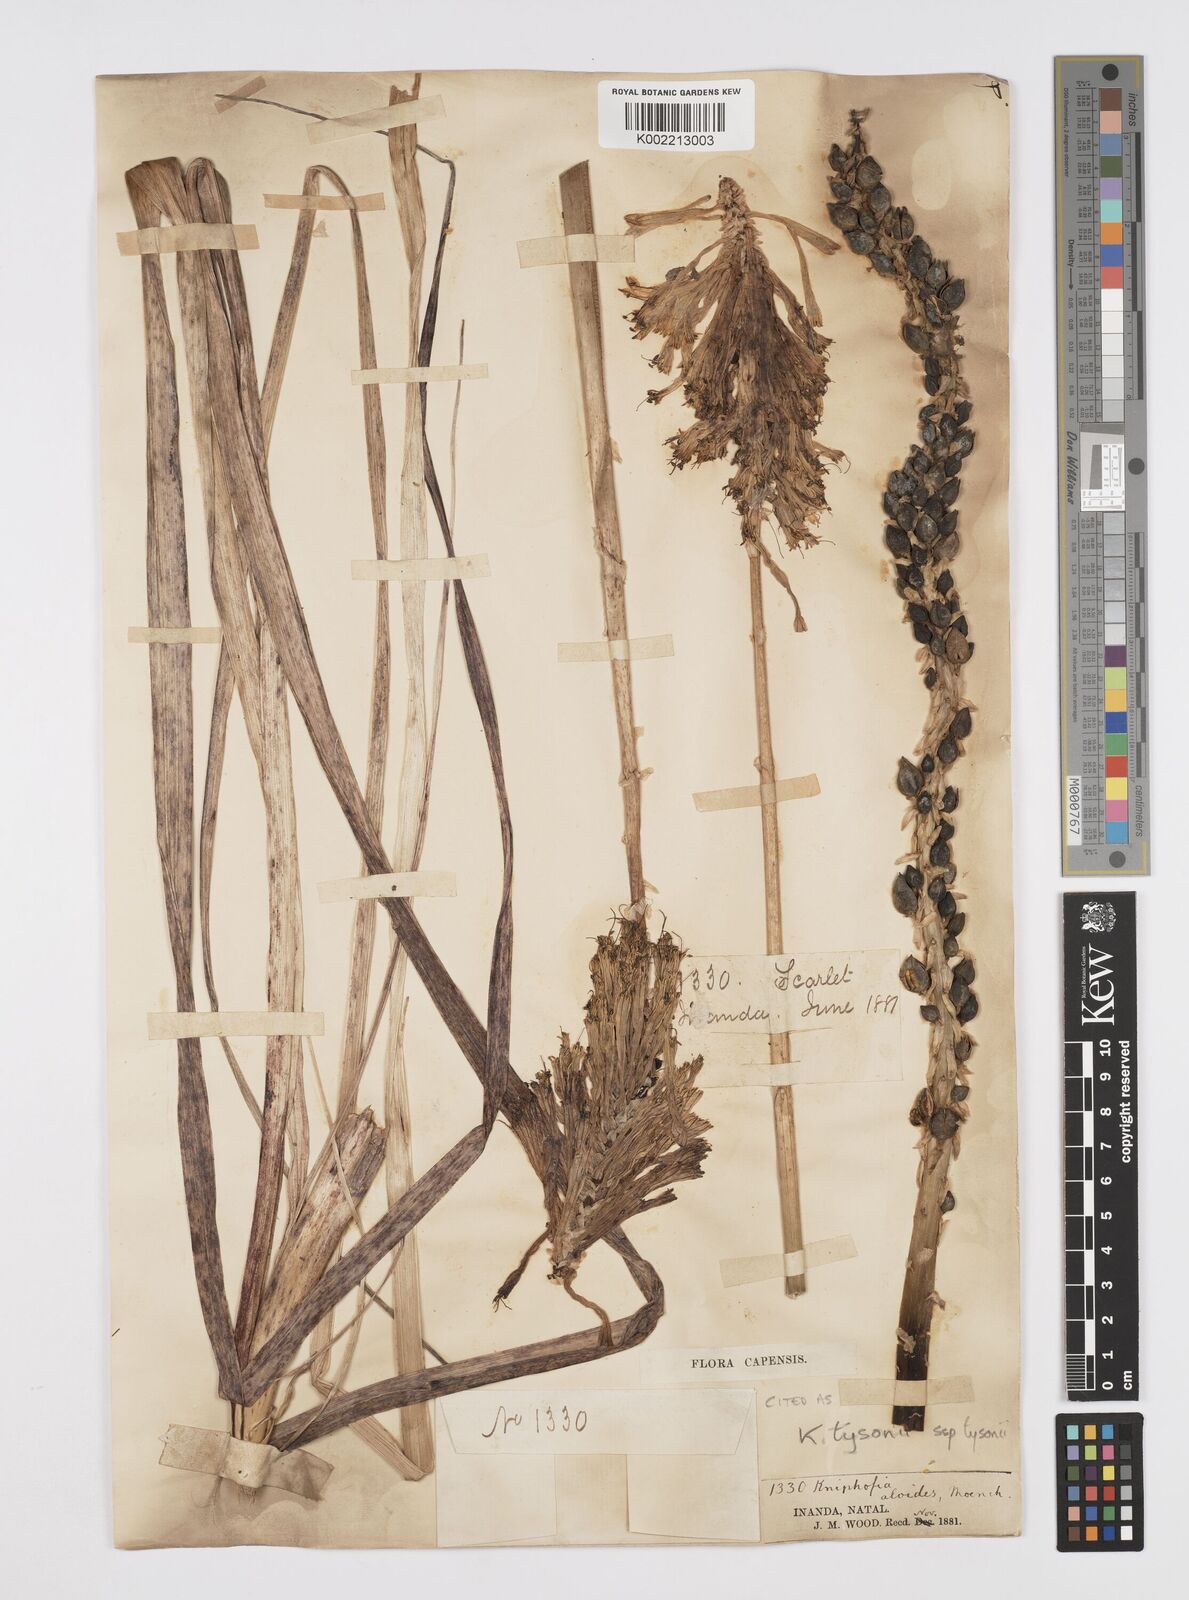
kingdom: Plantae
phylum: Tracheophyta
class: Liliopsida
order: Asparagales
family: Asphodelaceae
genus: Kniphofia
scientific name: Kniphofia tysonii
